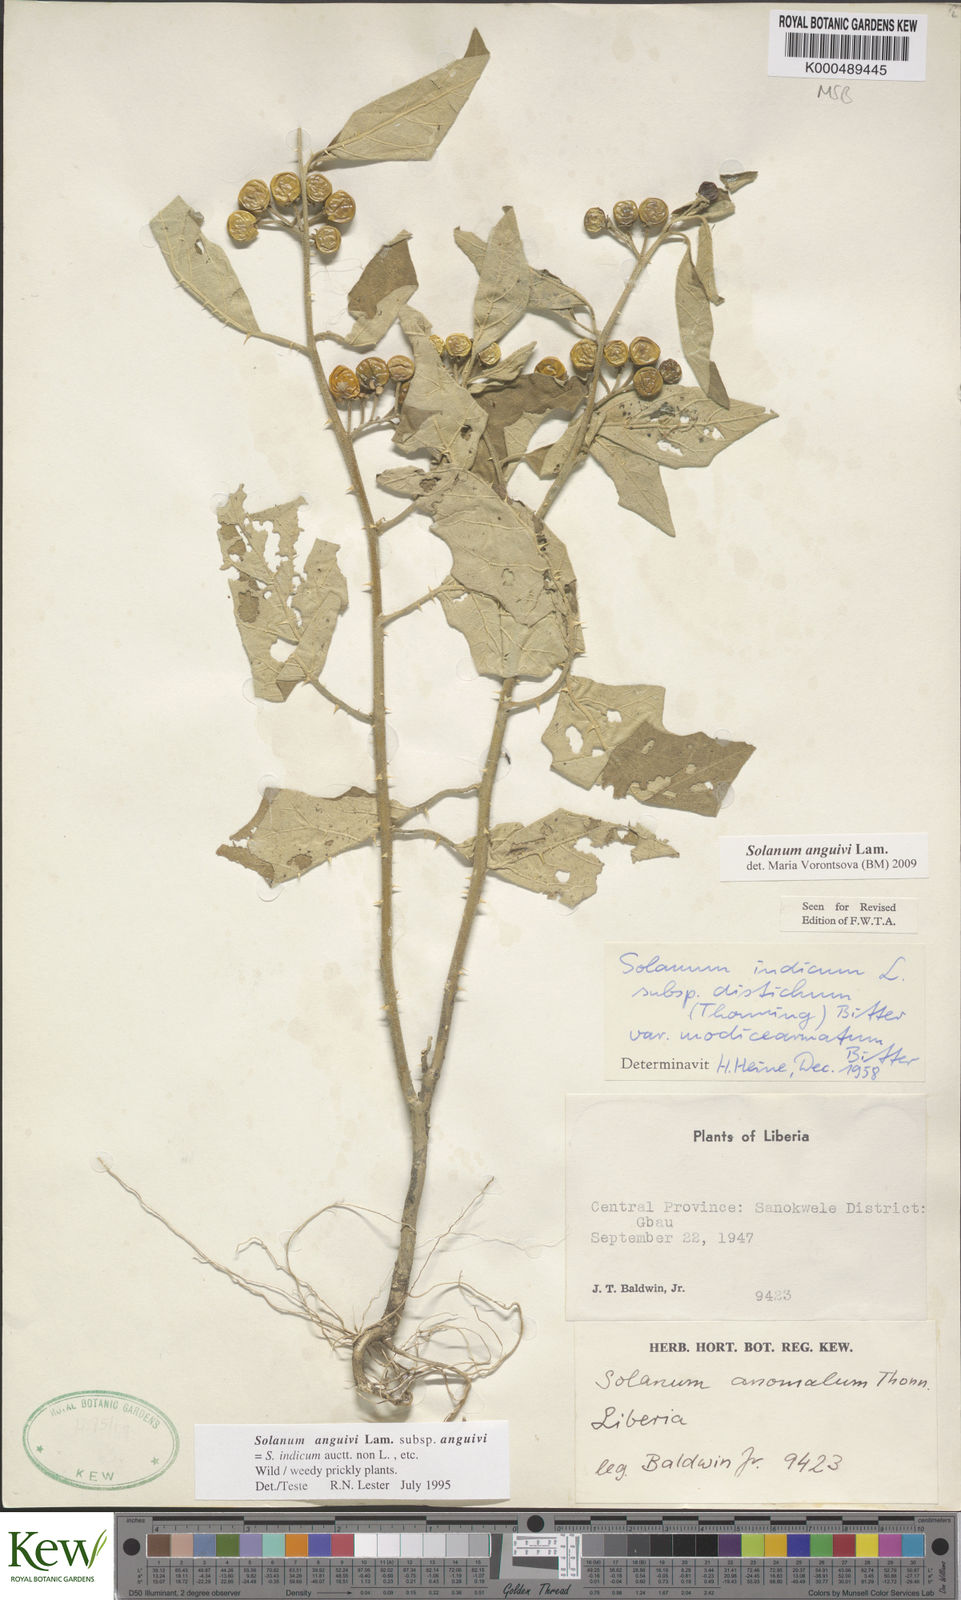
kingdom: Plantae
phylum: Tracheophyta
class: Magnoliopsida
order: Solanales
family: Solanaceae
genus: Solanum
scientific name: Solanum anguivi
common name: Forest bitterberry
